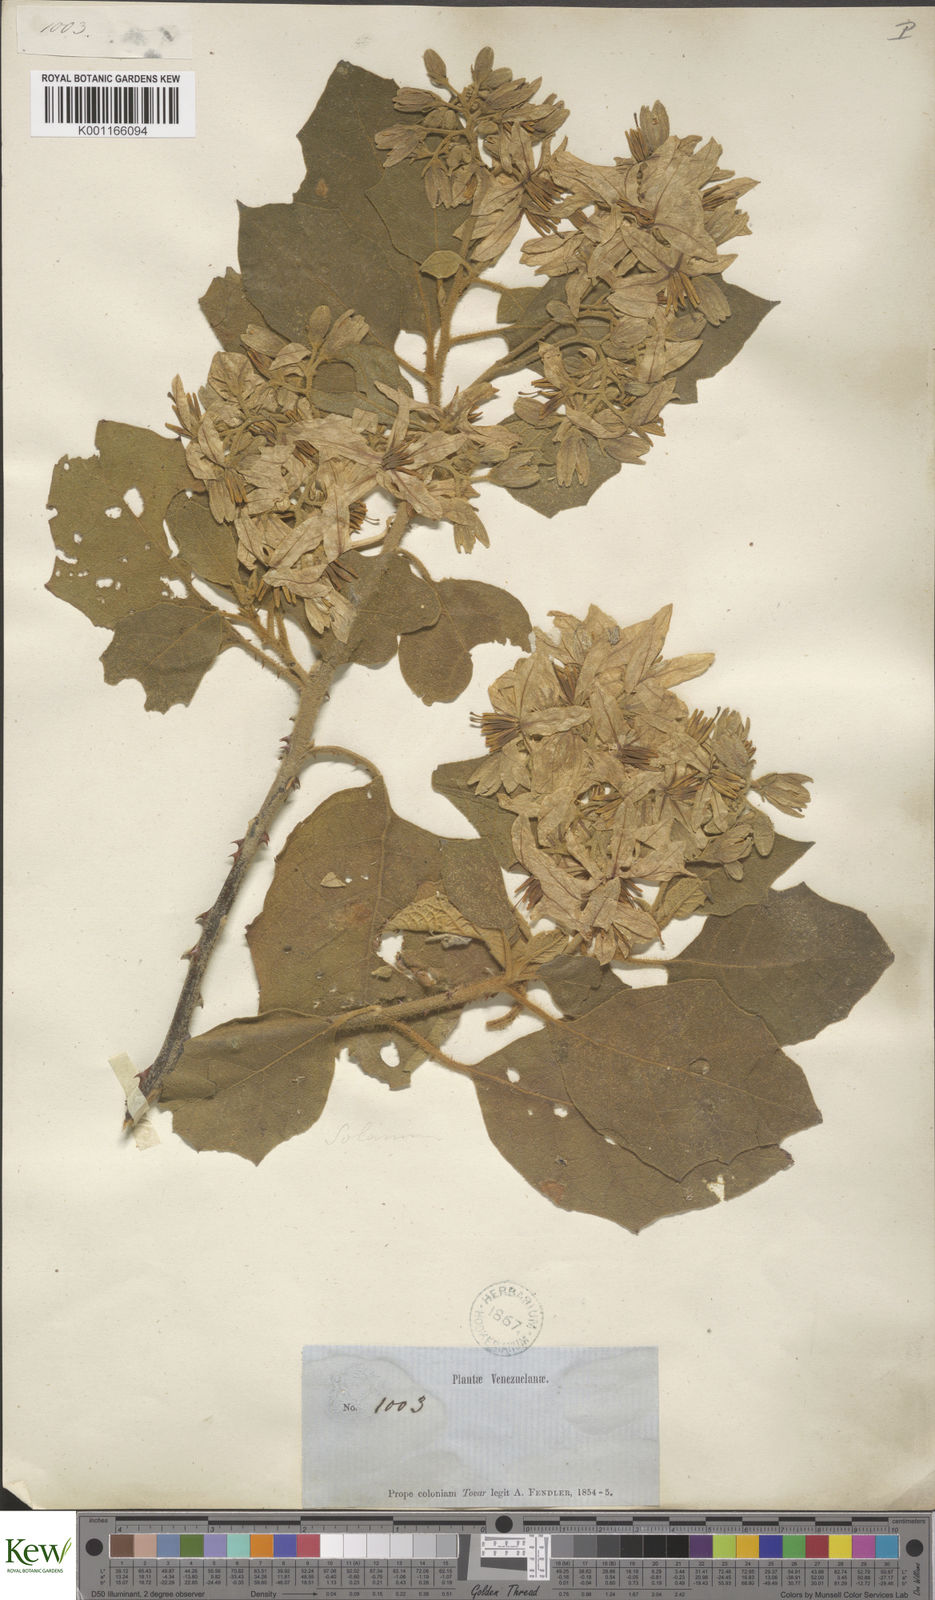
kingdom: Plantae
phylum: Tracheophyta
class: Magnoliopsida
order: Solanales
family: Solanaceae
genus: Solanum
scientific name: Solanum subserratum
